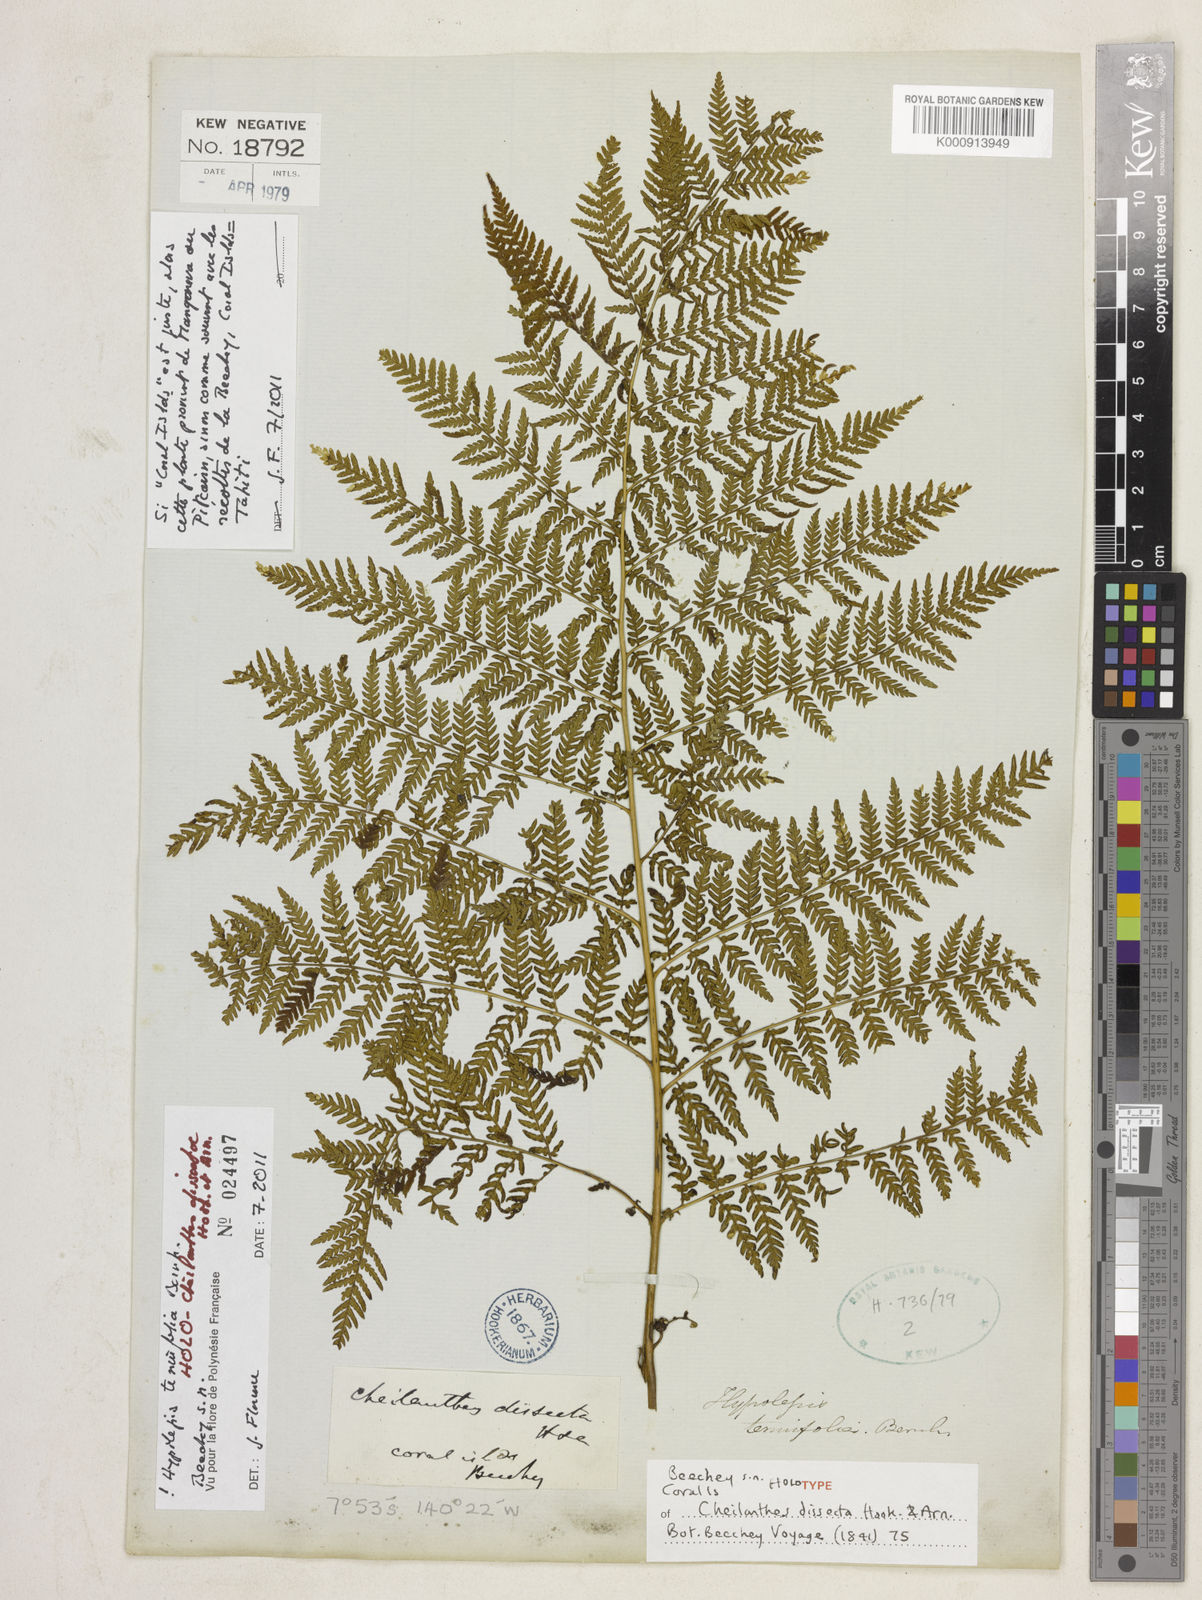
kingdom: Plantae
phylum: Tracheophyta
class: Polypodiopsida
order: Polypodiales
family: Dennstaedtiaceae
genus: Hypolepis
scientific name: Hypolepis tenuifolia
